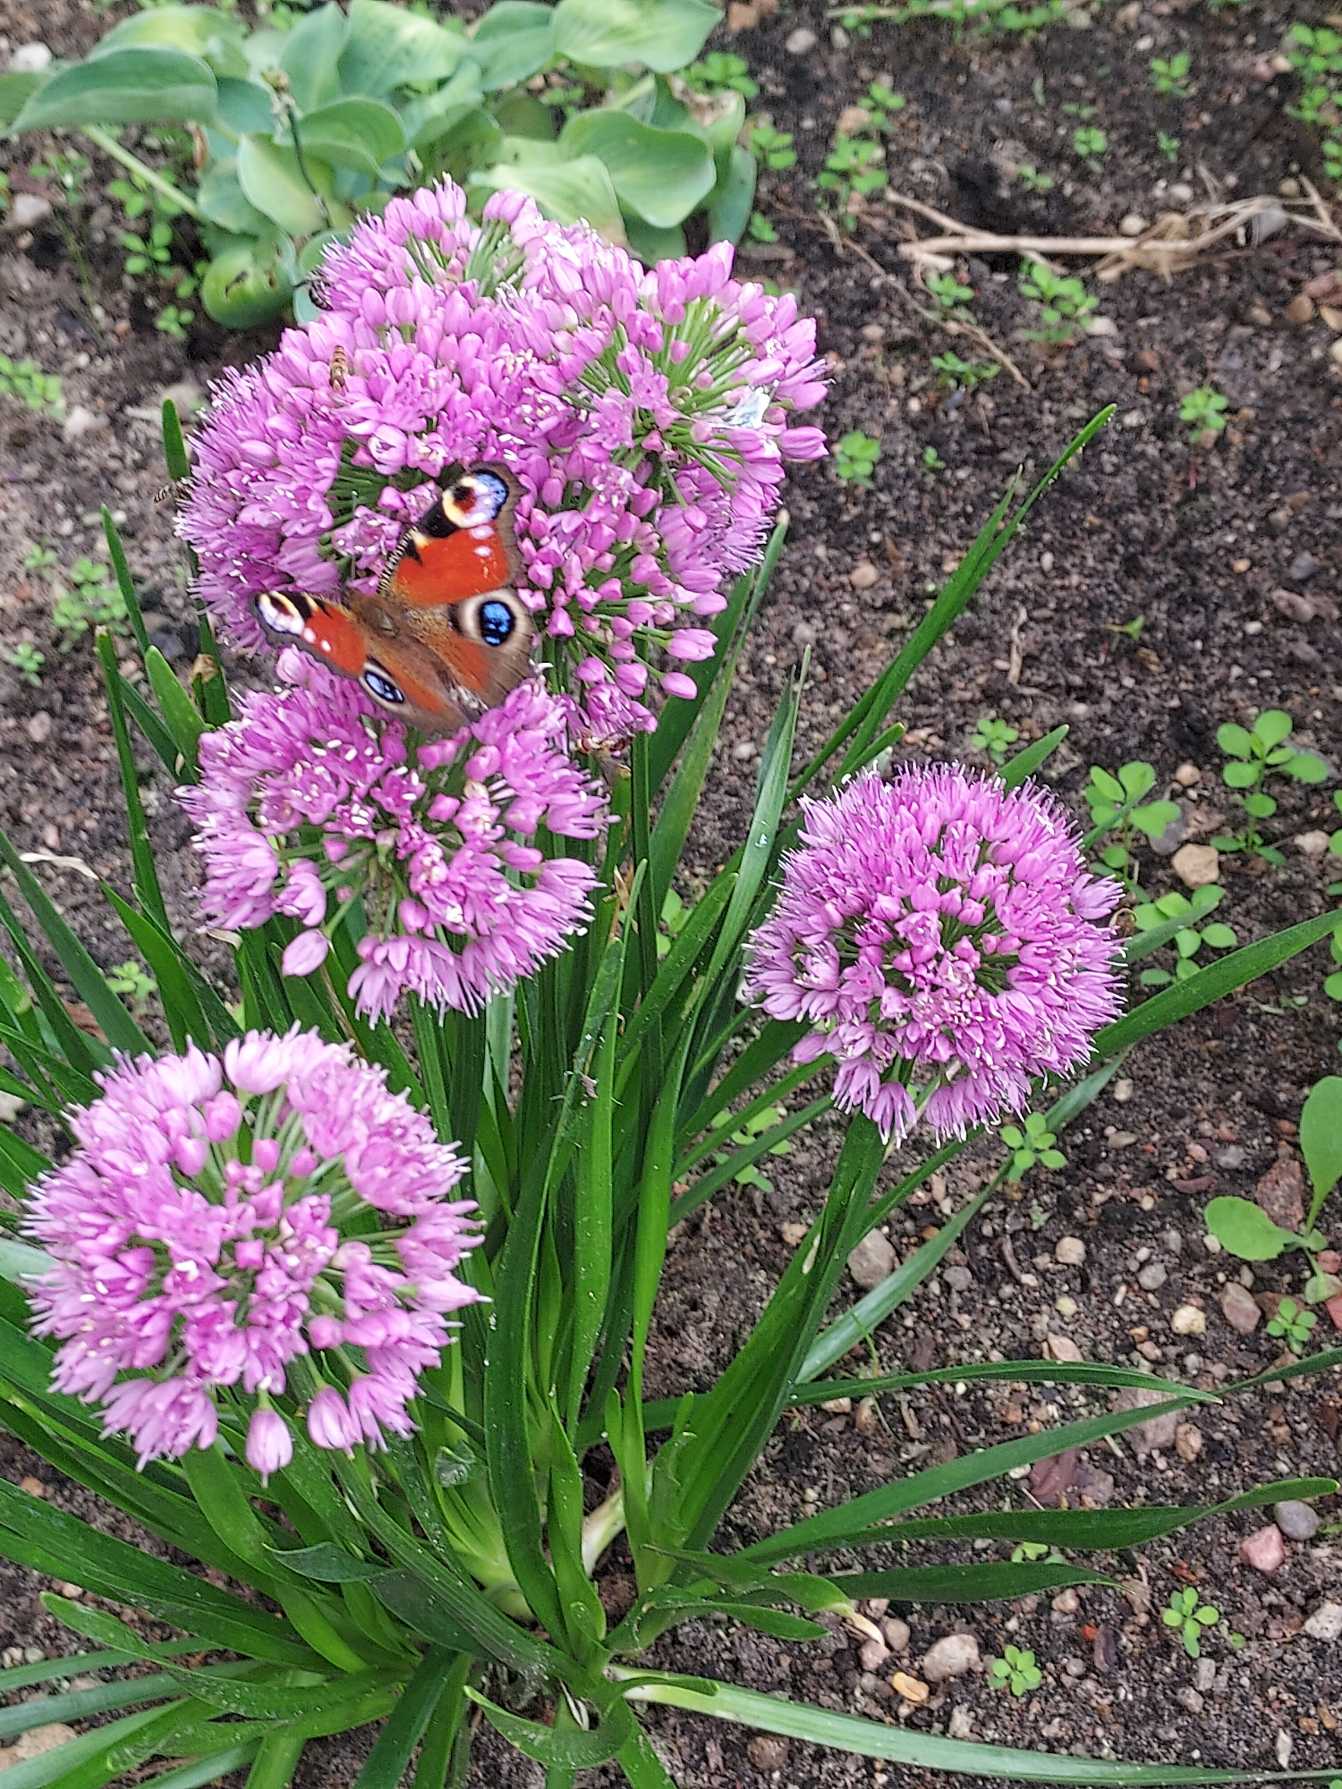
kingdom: Animalia
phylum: Arthropoda
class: Insecta
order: Lepidoptera
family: Nymphalidae
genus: Aglais
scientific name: Aglais io
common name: Dagpåfugleøje
